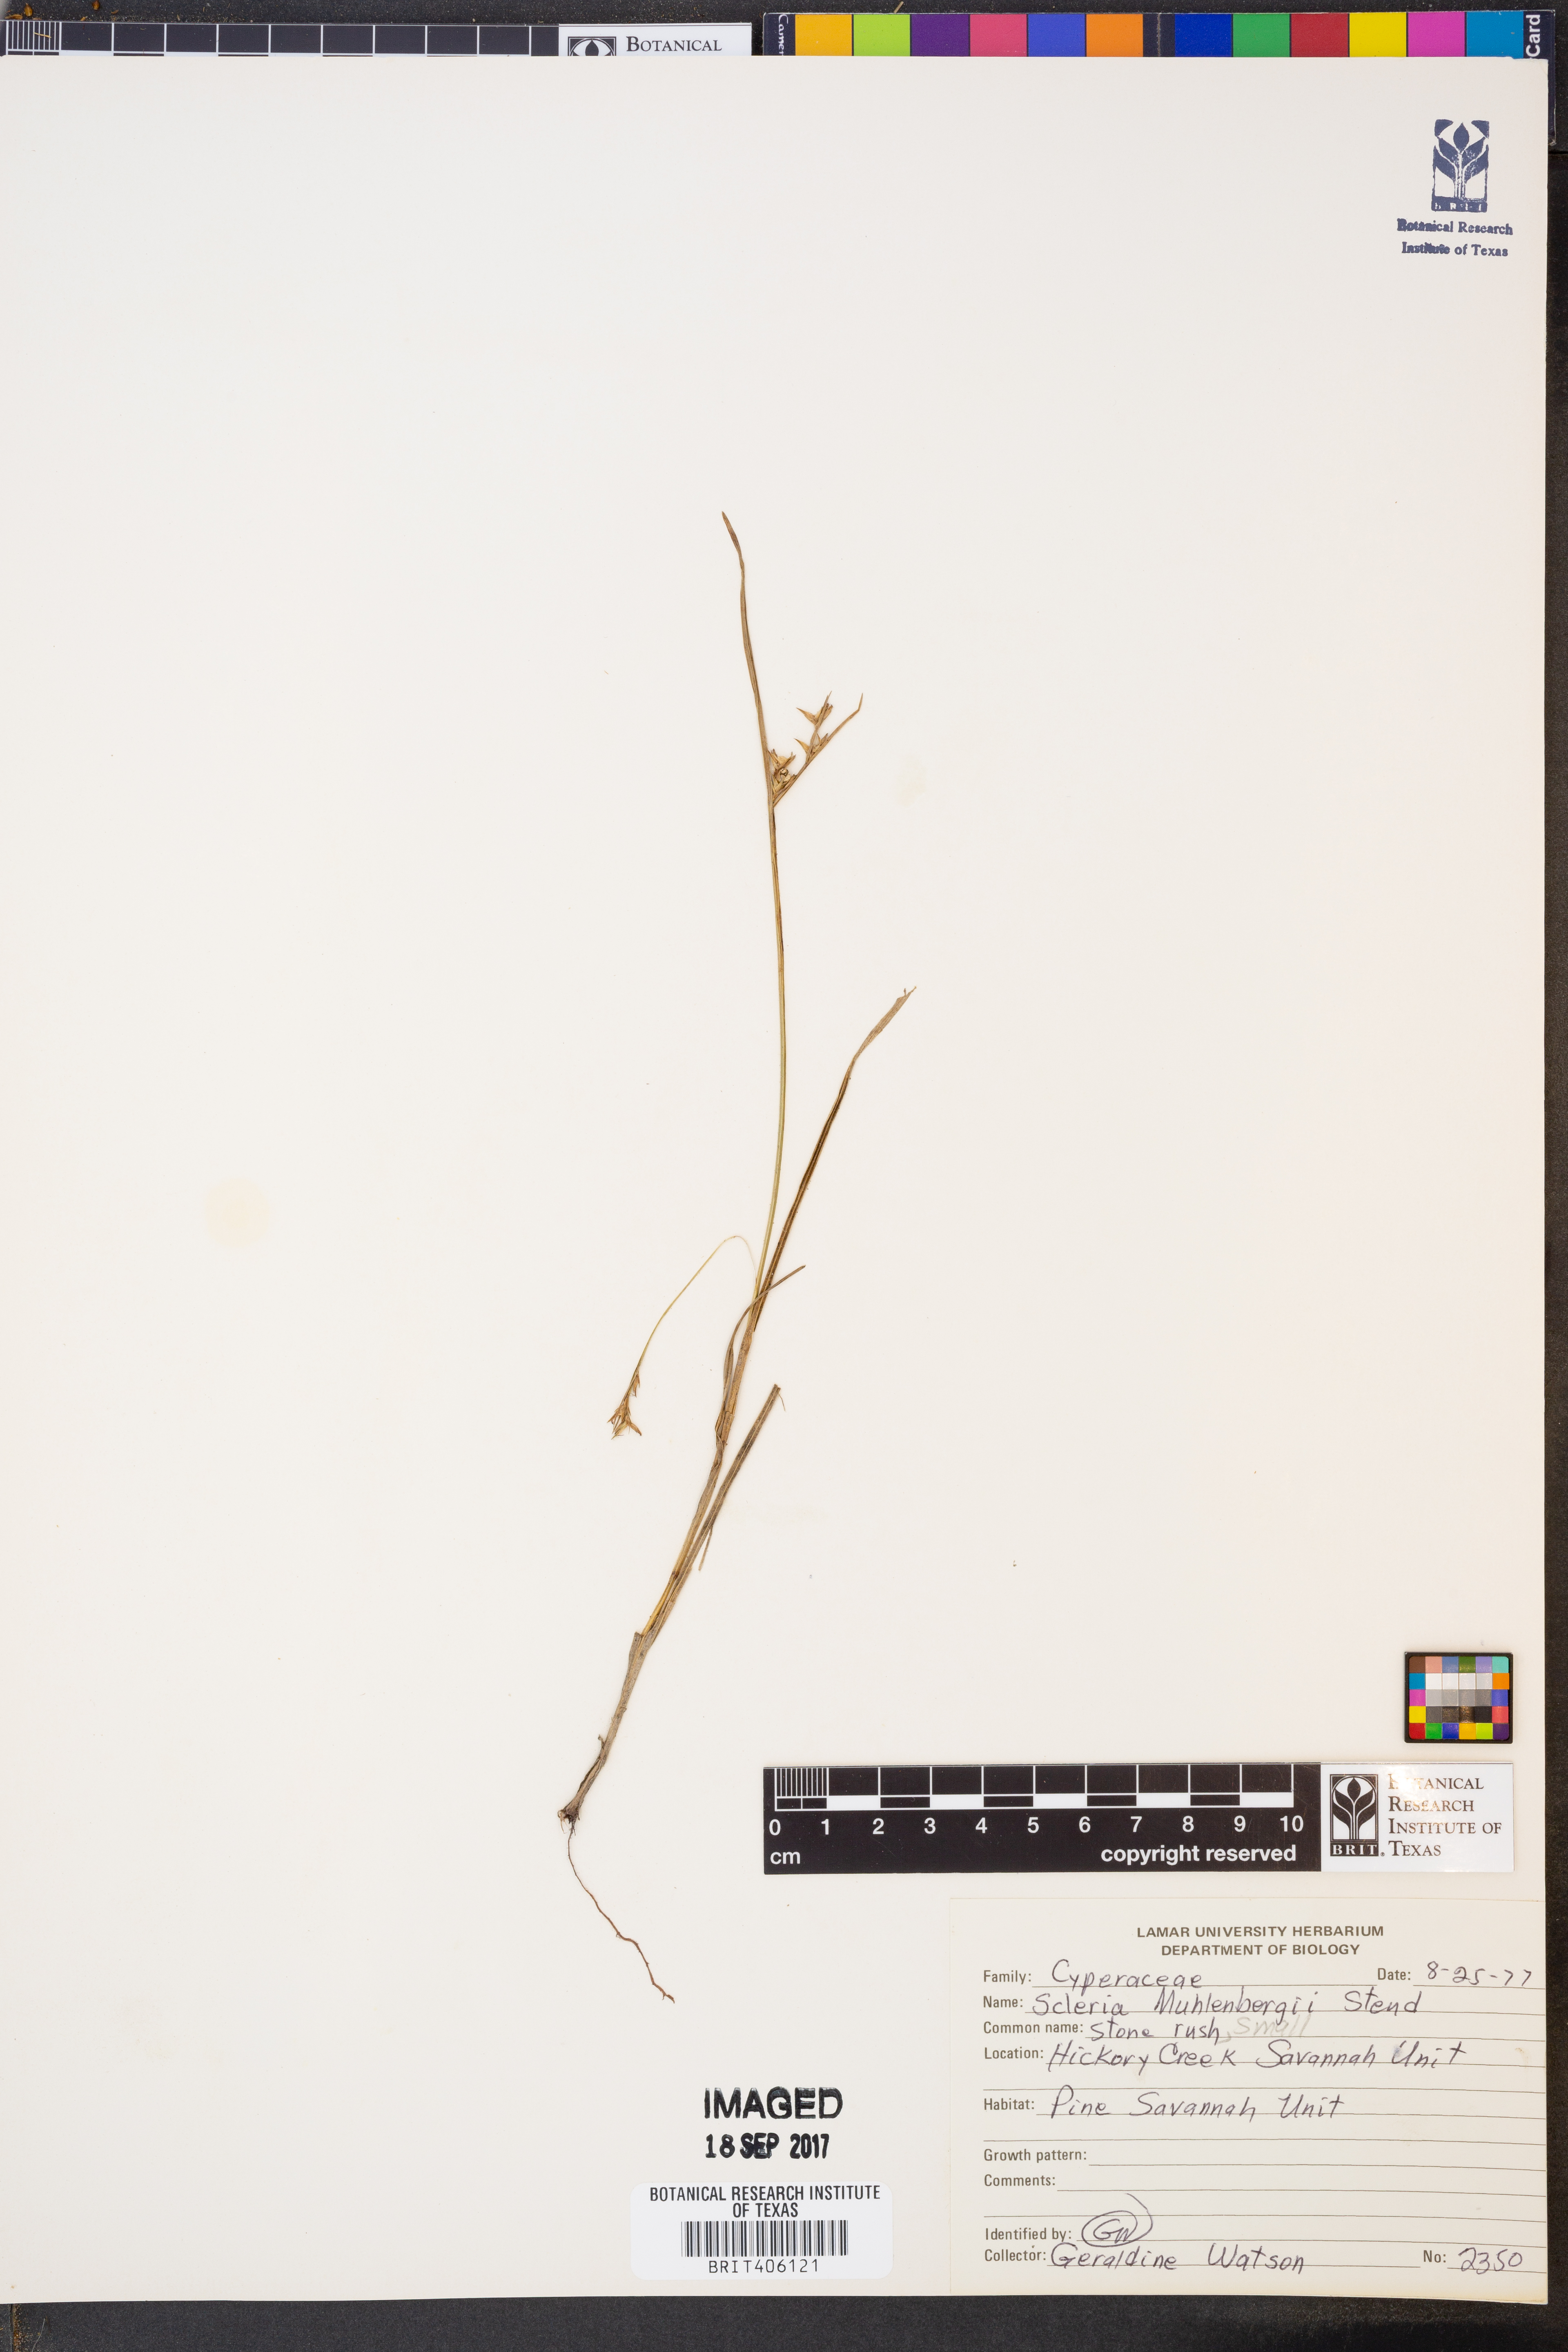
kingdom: Plantae
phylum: Tracheophyta
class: Liliopsida
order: Poales
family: Cyperaceae
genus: Scleria
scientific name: Scleria muehlenbergii
